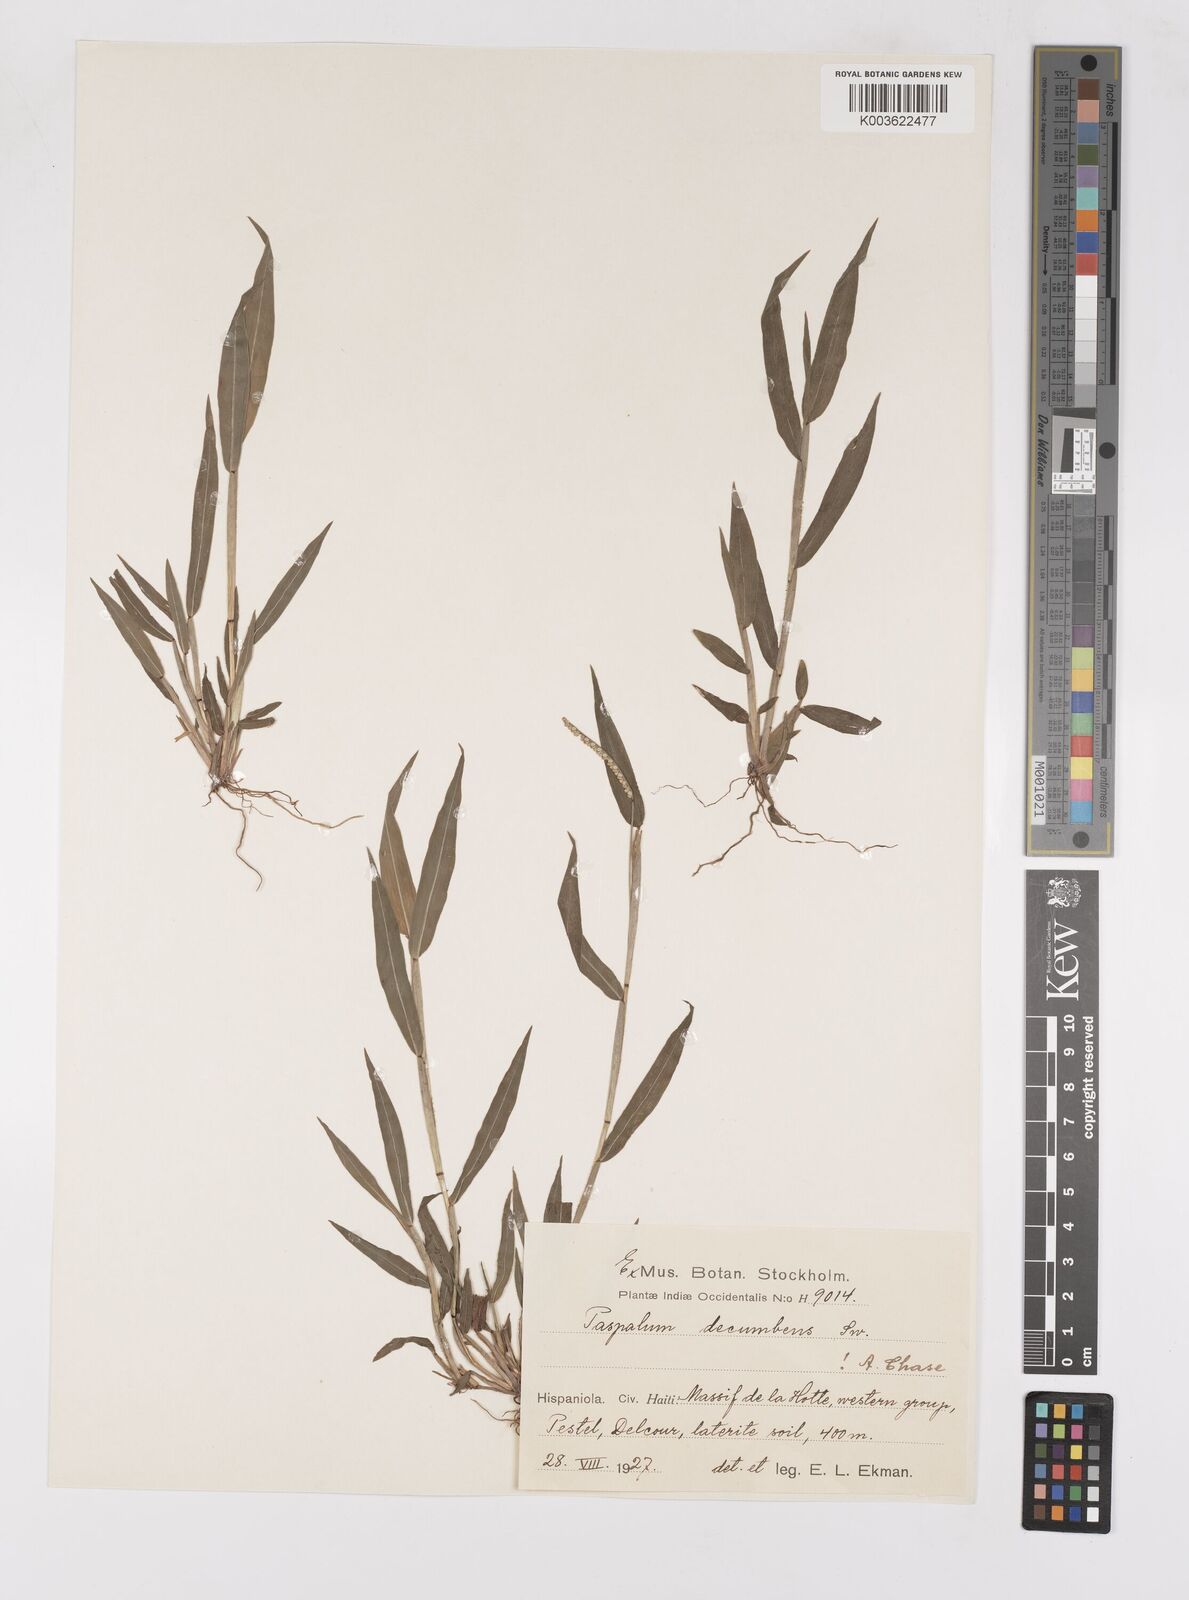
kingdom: Plantae
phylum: Tracheophyta
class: Liliopsida
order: Poales
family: Poaceae
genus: Paspalum
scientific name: Paspalum decumbens
